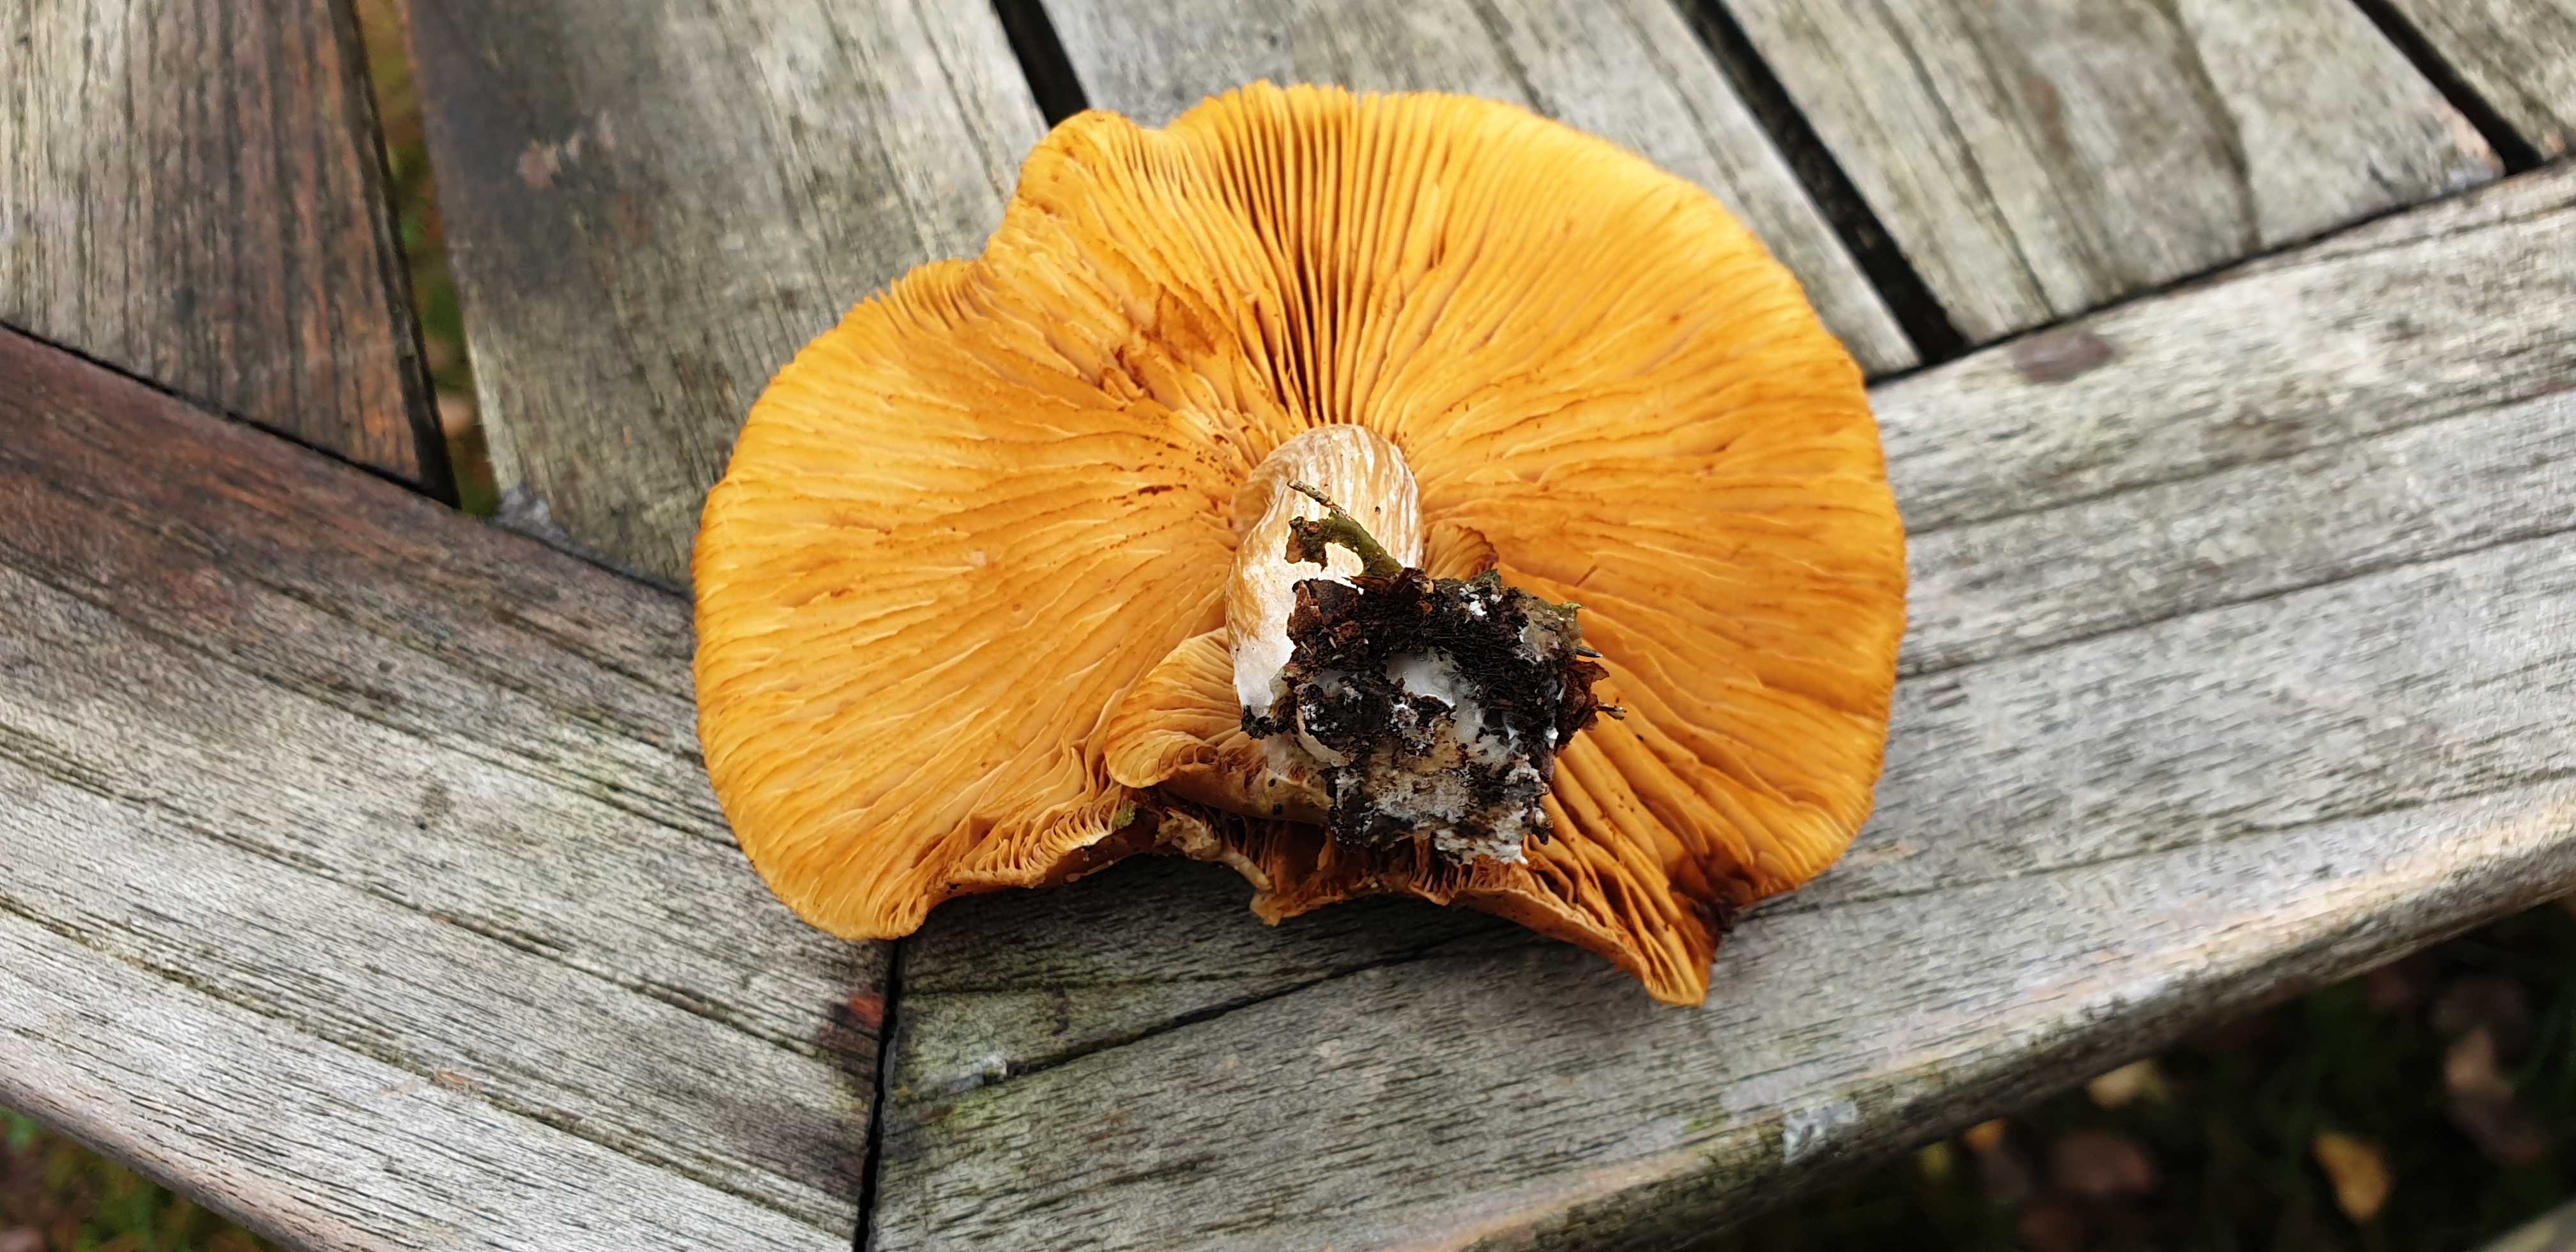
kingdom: Fungi
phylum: Basidiomycota
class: Agaricomycetes
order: Agaricales
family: Hymenogastraceae
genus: Gymnopilus
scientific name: Gymnopilus penetrans
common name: plettet flammehat
